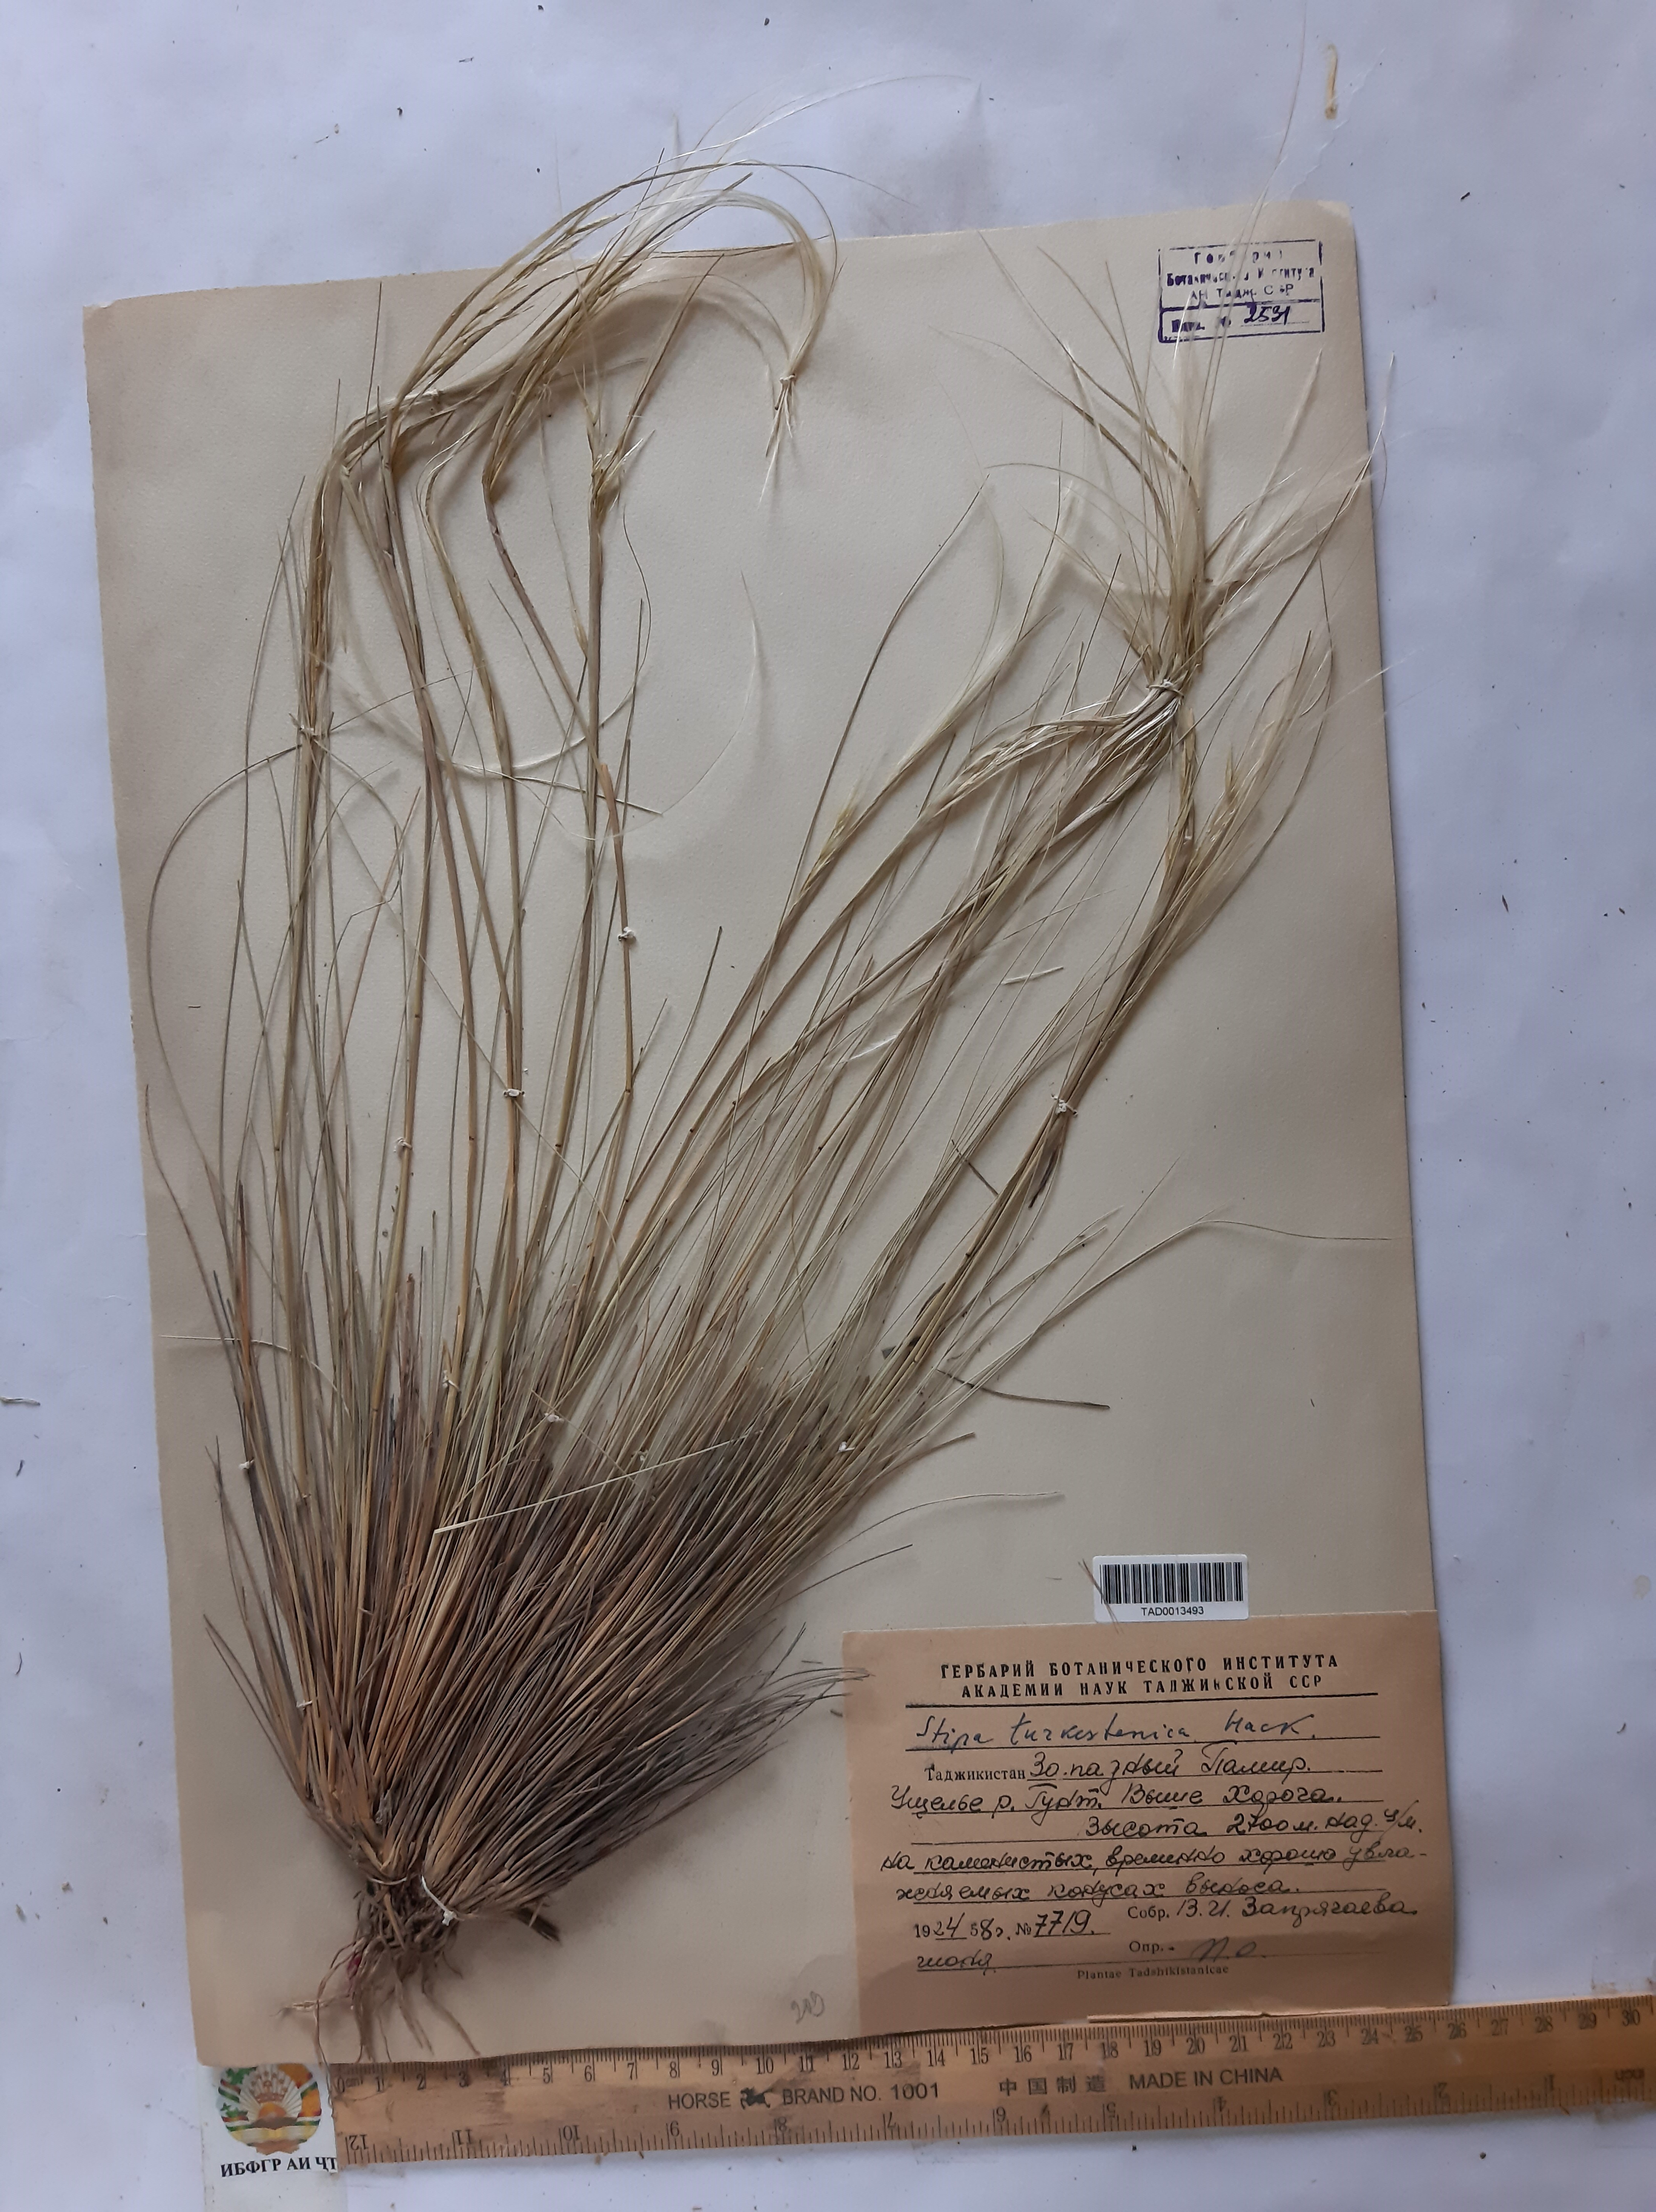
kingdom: Plantae
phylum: Tracheophyta
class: Liliopsida
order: Poales
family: Poaceae
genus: Stipa
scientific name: Stipa turkestanica
